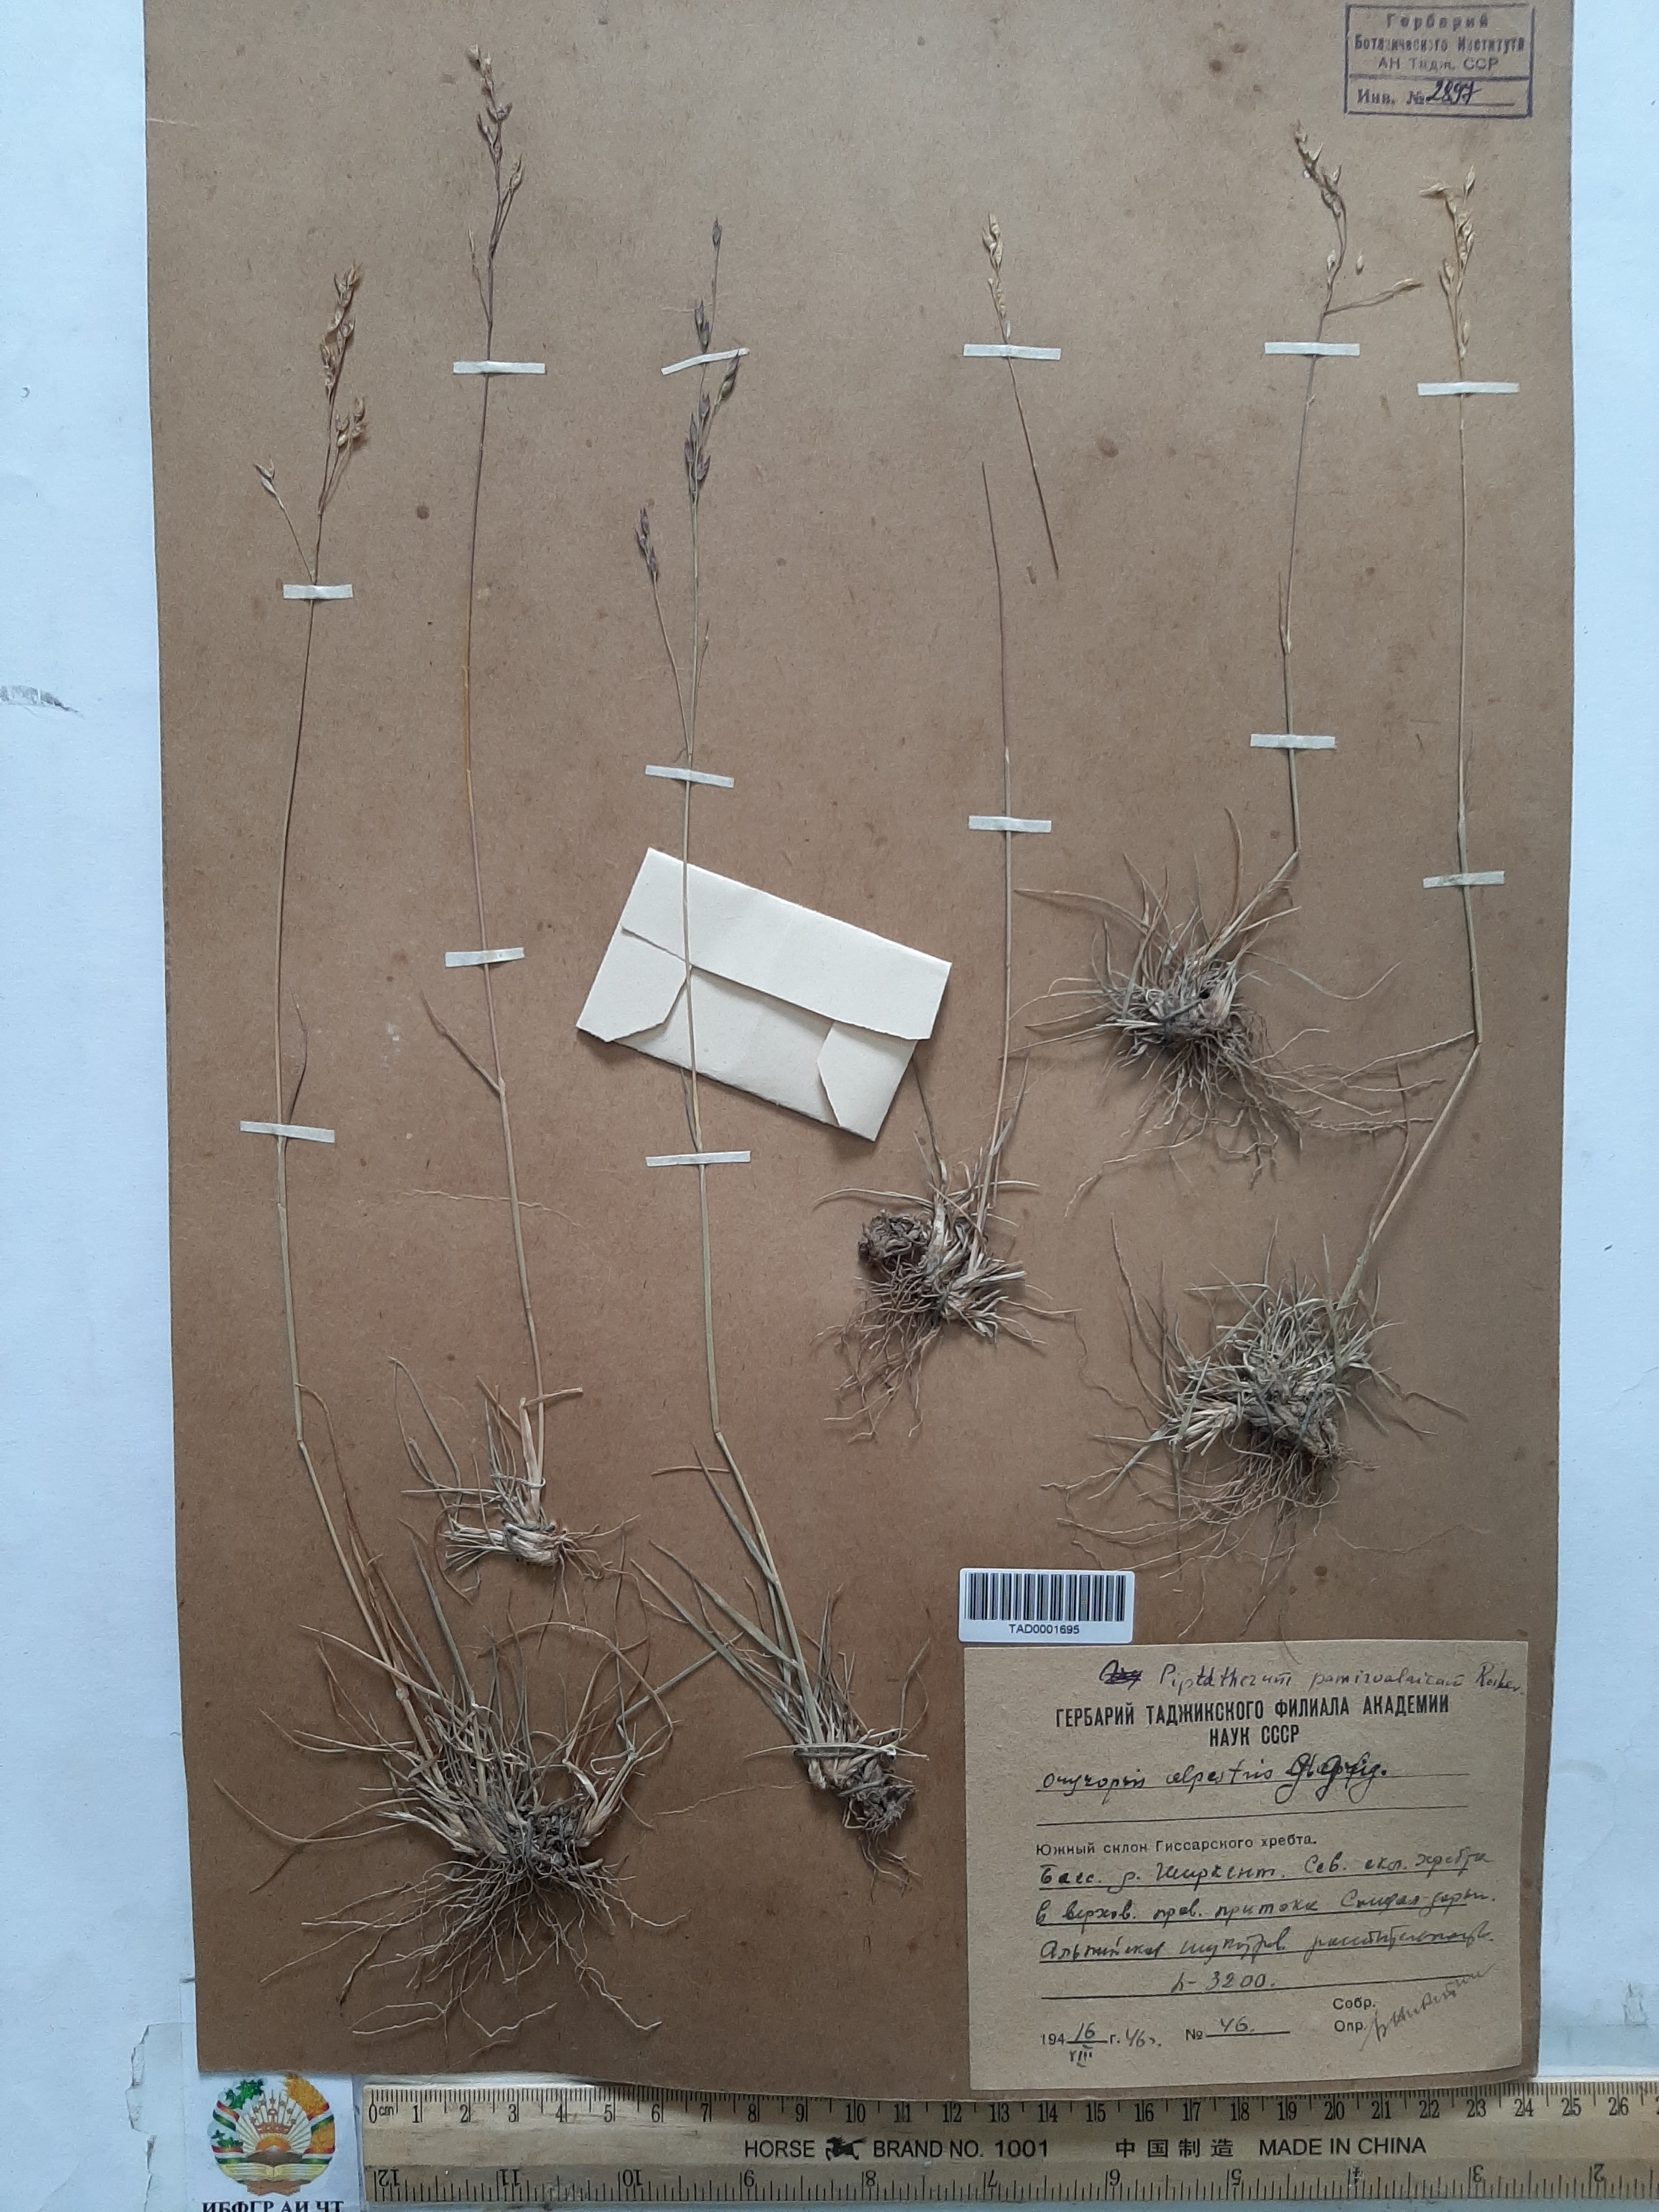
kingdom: Plantae
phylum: Tracheophyta
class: Liliopsida
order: Poales
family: Poaceae
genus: Piptatherum
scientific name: Piptatherum pamiralaicum
